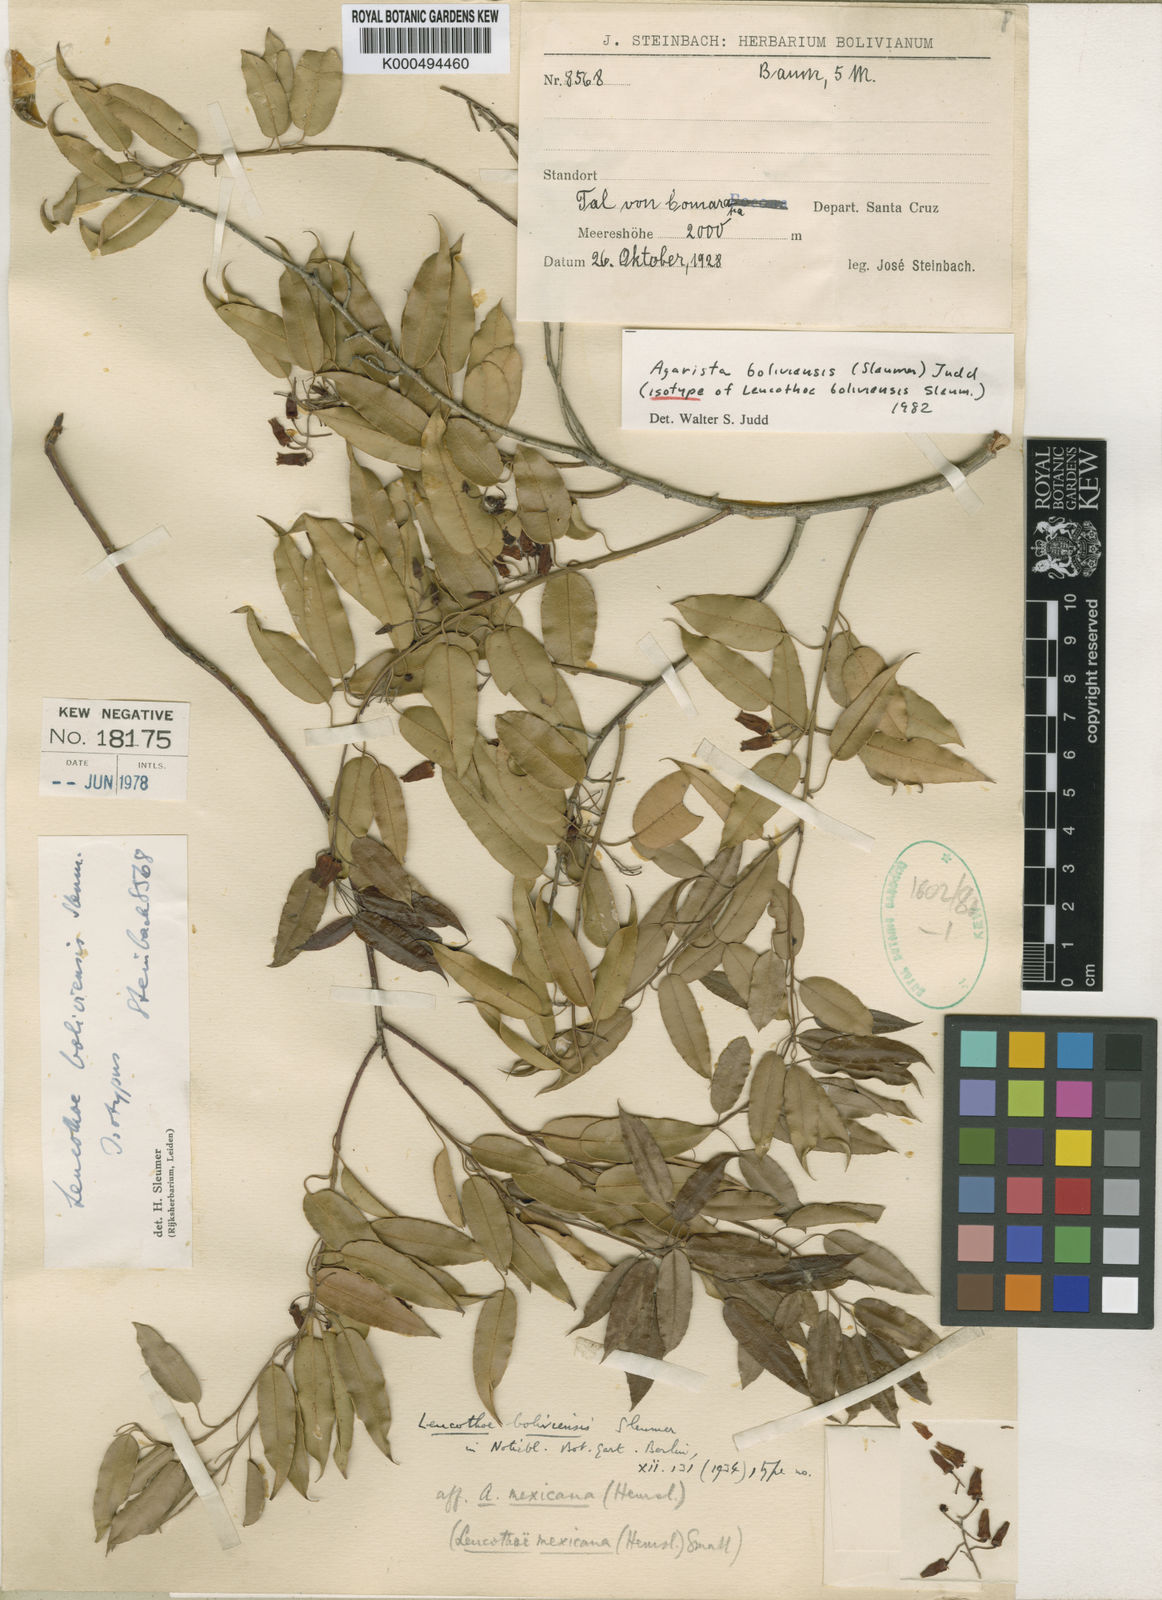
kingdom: Plantae
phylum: Tracheophyta
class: Magnoliopsida
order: Ericales
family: Ericaceae
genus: Agarista
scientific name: Agarista boliviensis
